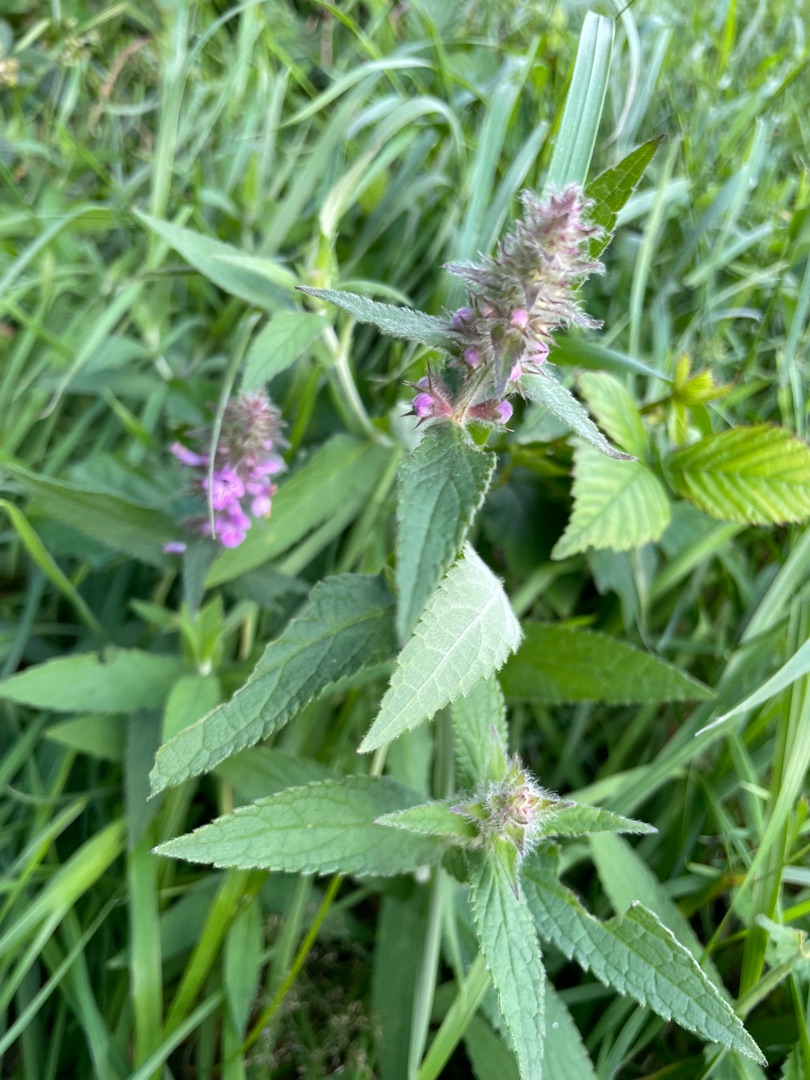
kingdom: Plantae
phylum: Tracheophyta
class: Magnoliopsida
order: Lamiales
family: Lamiaceae
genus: Stachys
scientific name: Stachys palustris
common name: Kær-galtetand
